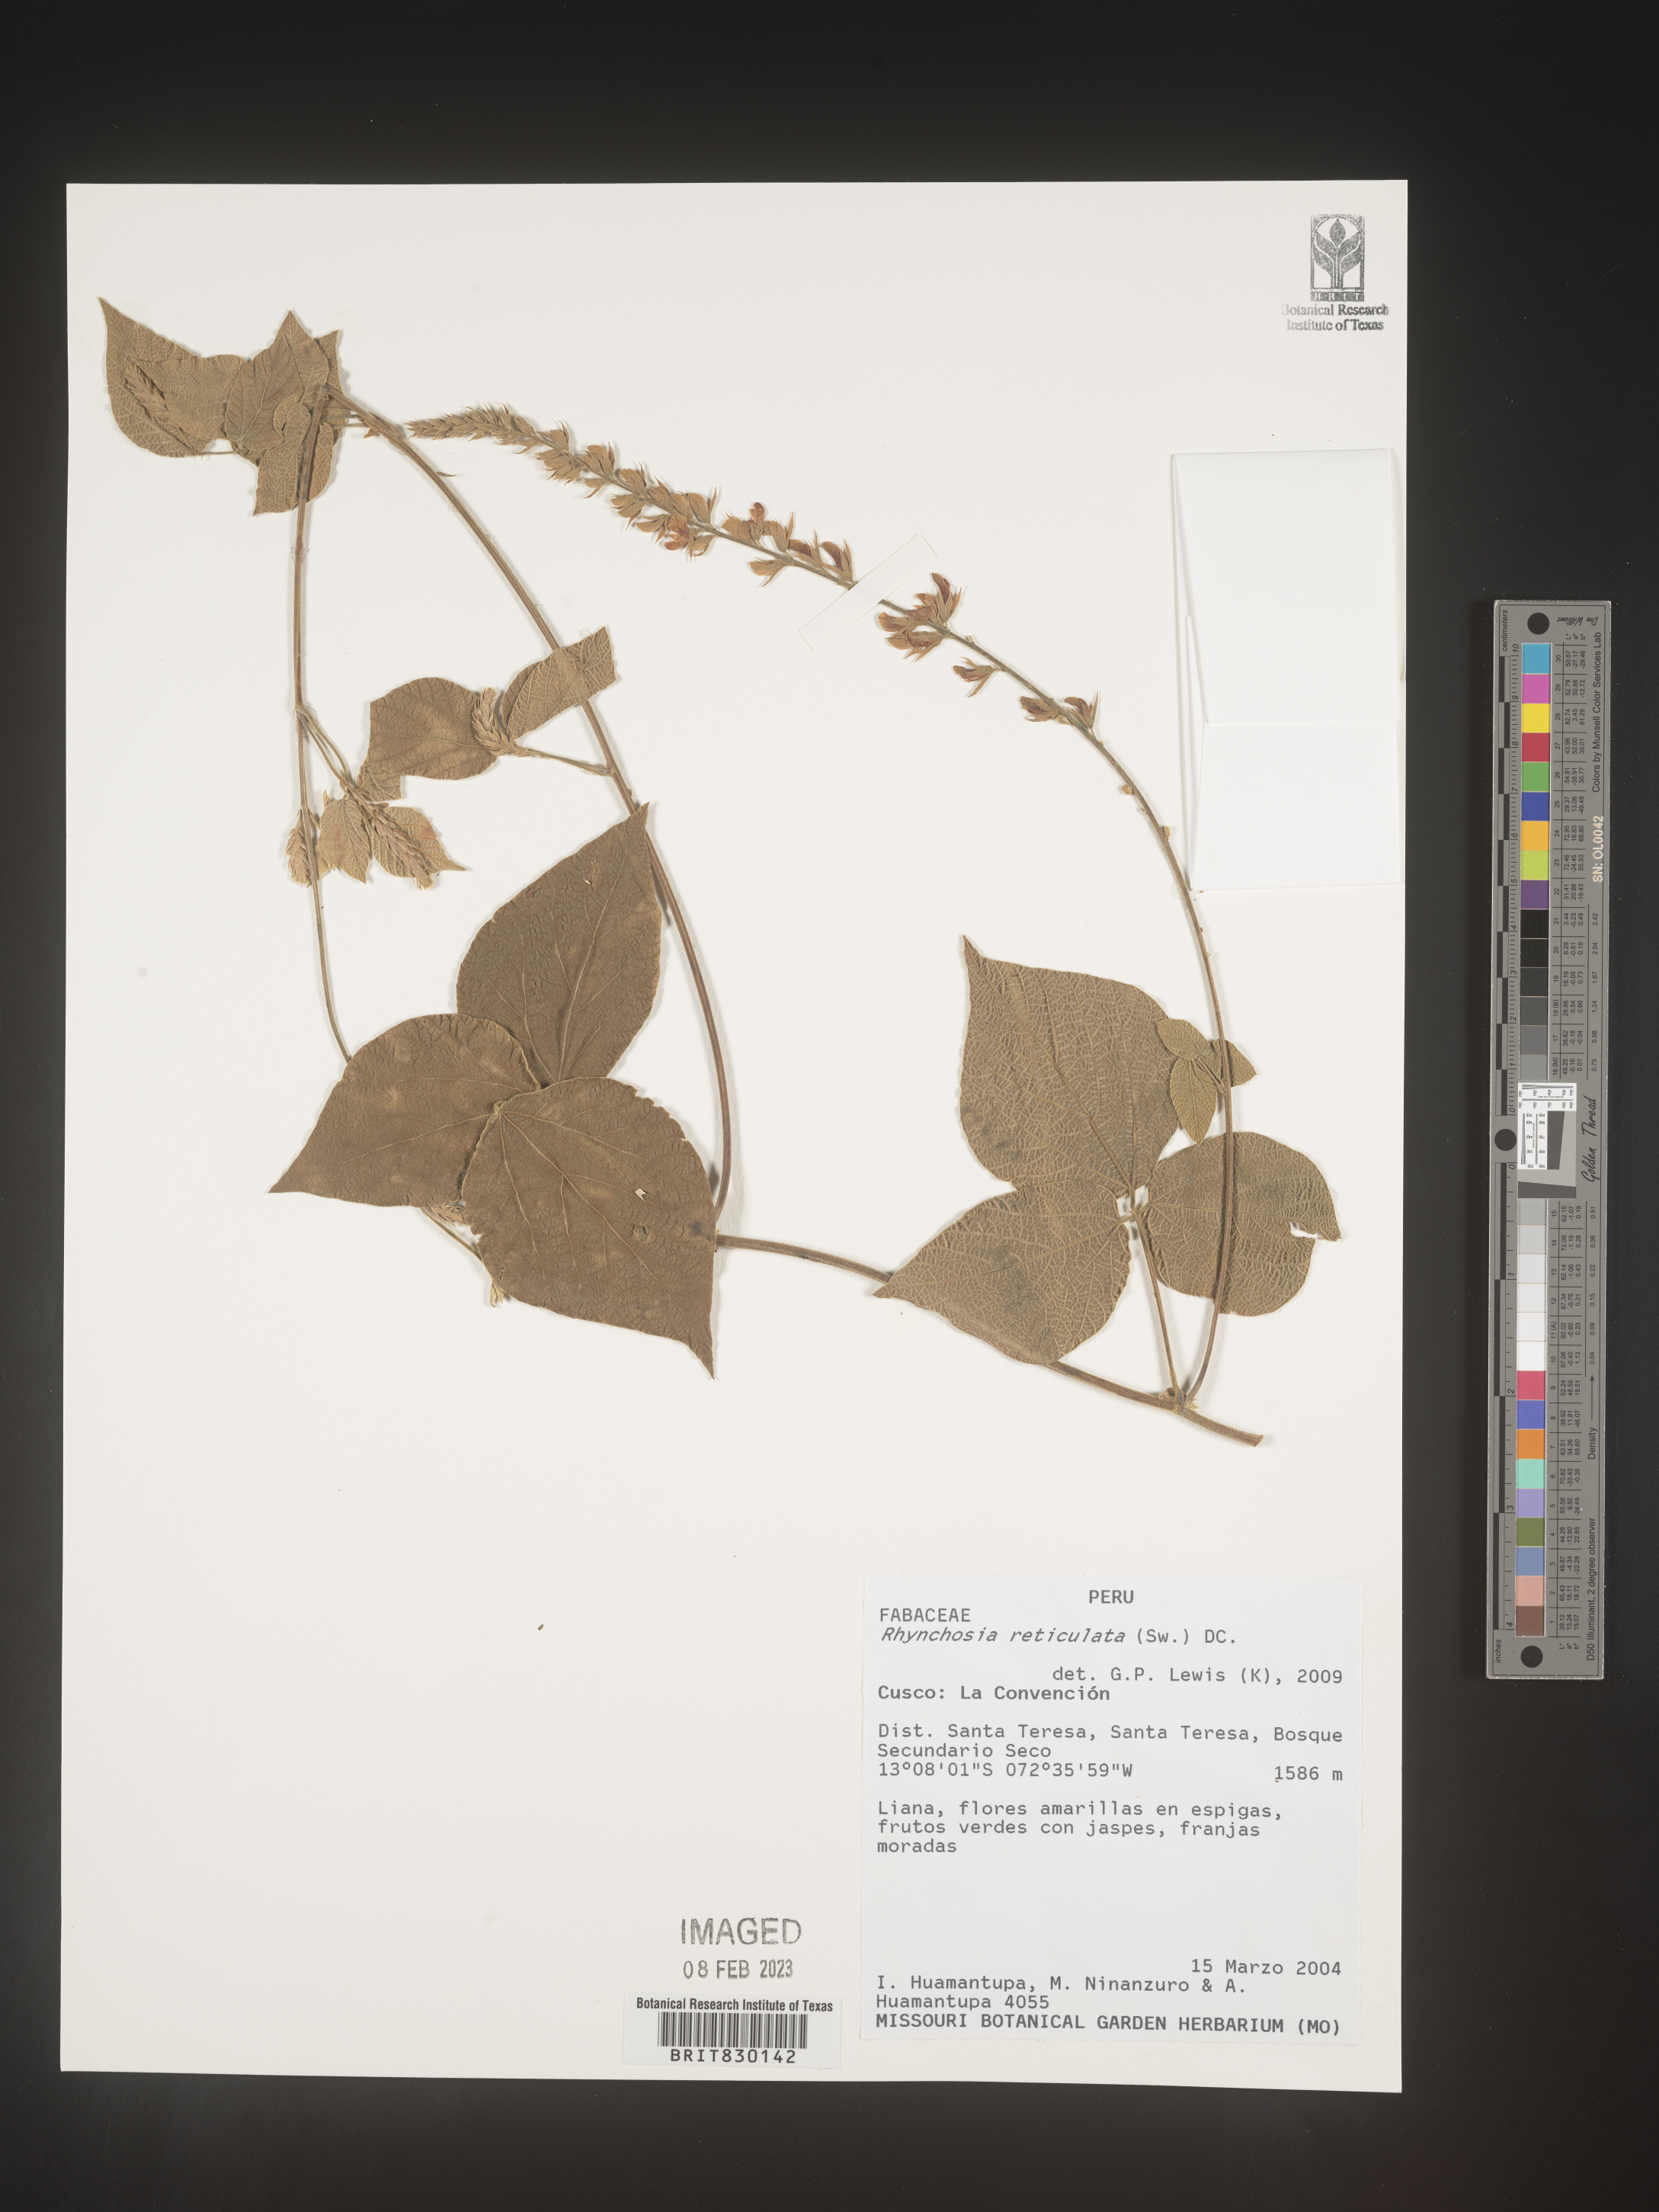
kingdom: Plantae
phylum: Tracheophyta
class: Magnoliopsida
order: Fabales
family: Fabaceae
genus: Rhynchosia
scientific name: Rhynchosia
